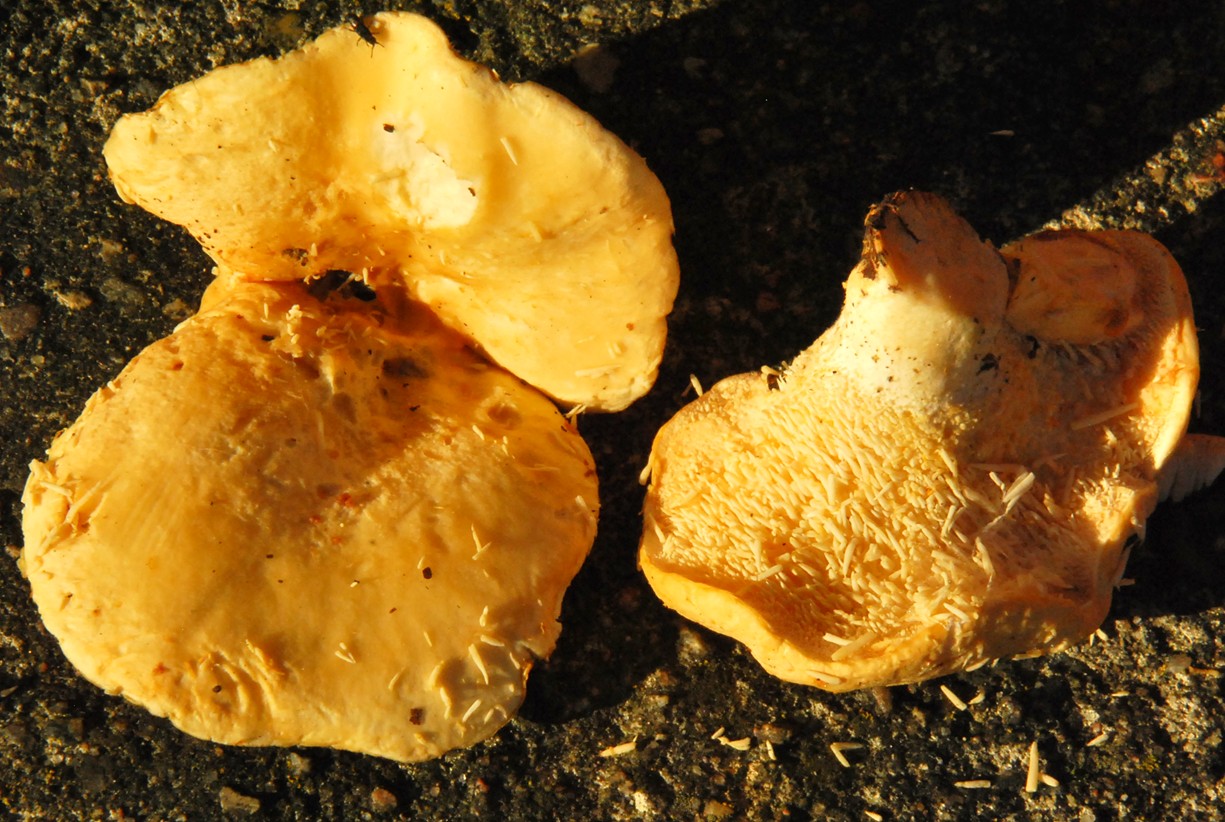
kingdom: Fungi
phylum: Basidiomycota
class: Agaricomycetes
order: Cantharellales
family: Hydnaceae
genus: Hydnum
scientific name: Hydnum repandum
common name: almindelig pigsvamp
